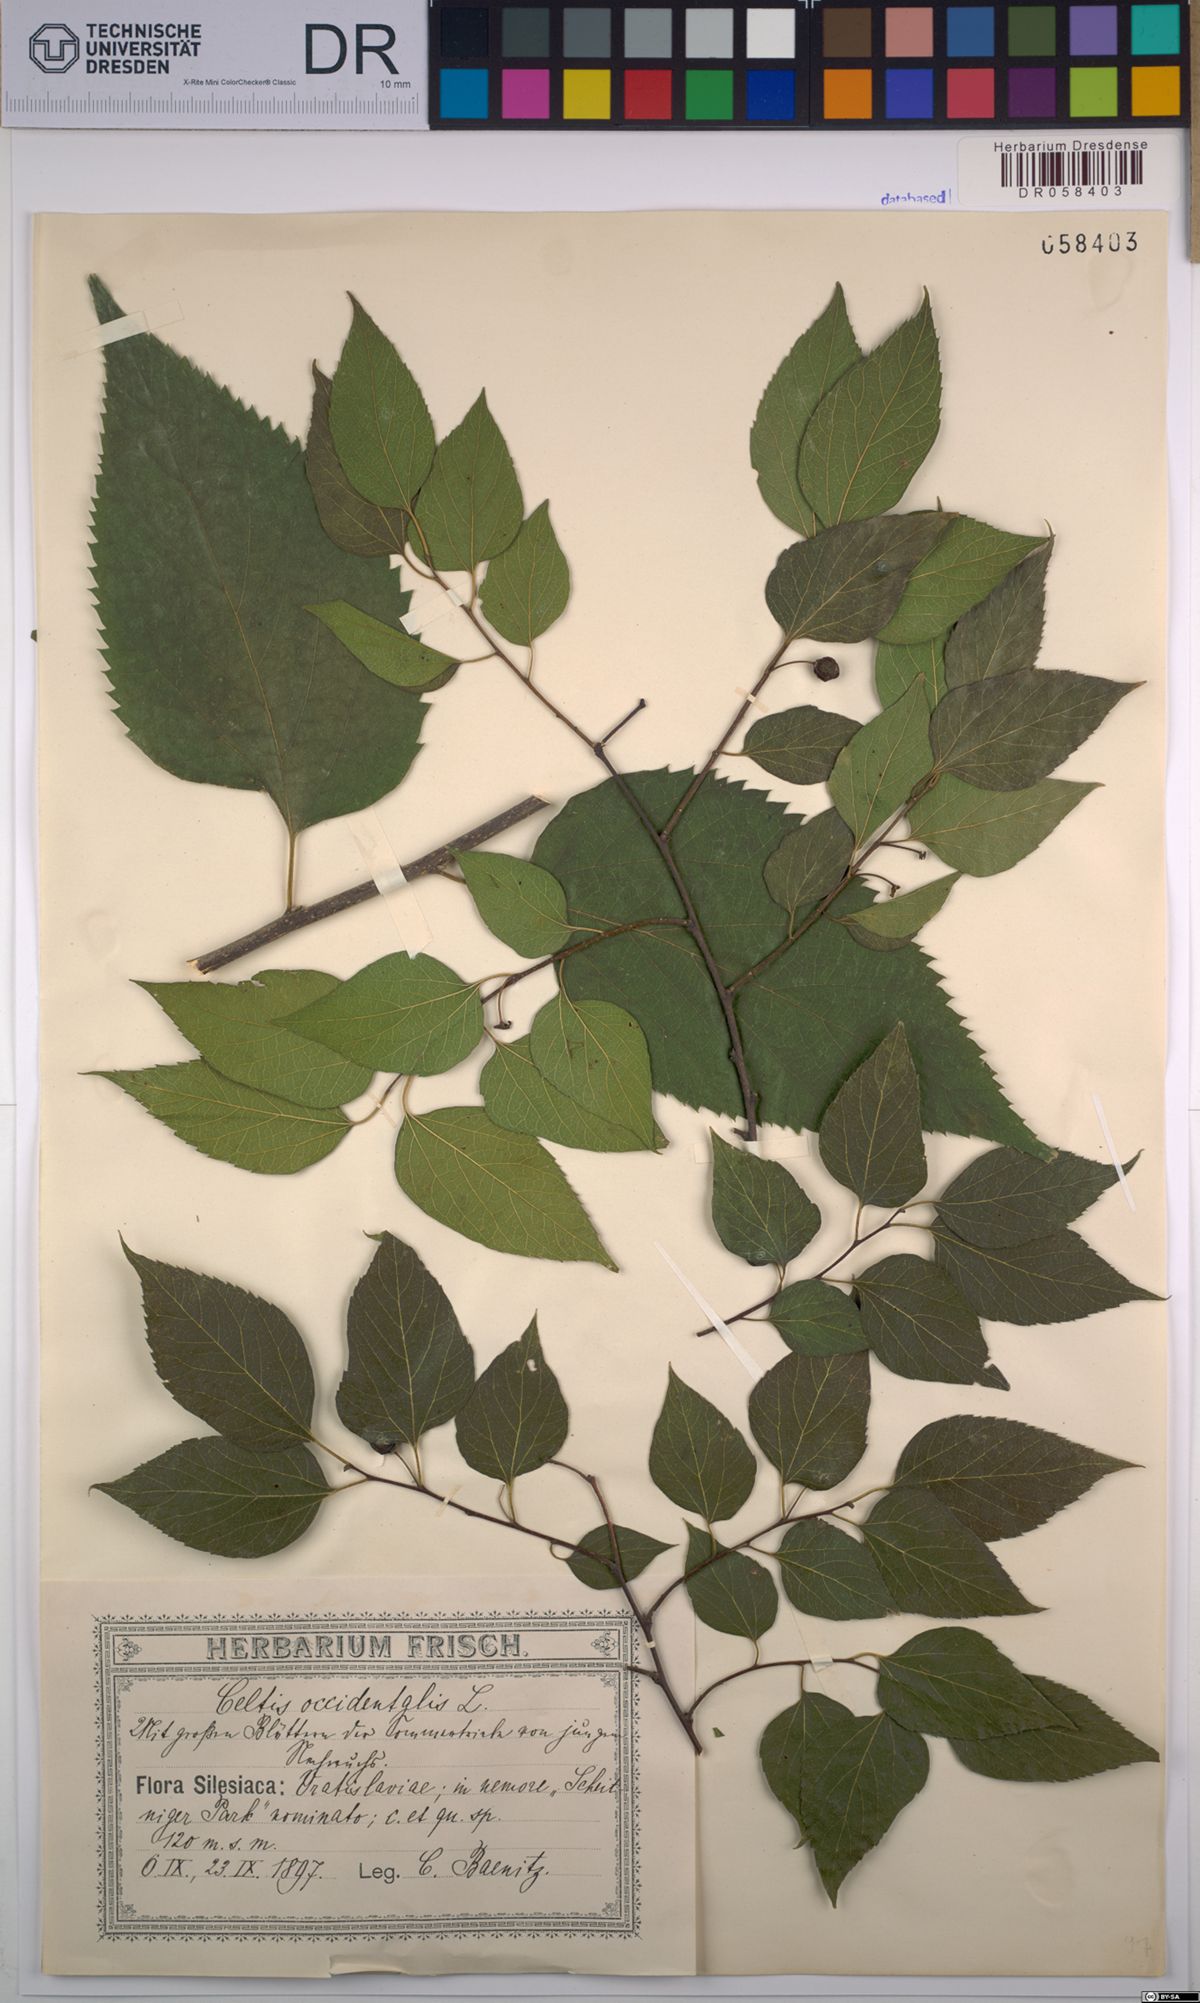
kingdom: Plantae
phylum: Tracheophyta
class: Magnoliopsida
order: Rosales
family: Cannabaceae
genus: Celtis
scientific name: Celtis occidentalis
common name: Common hackberry
